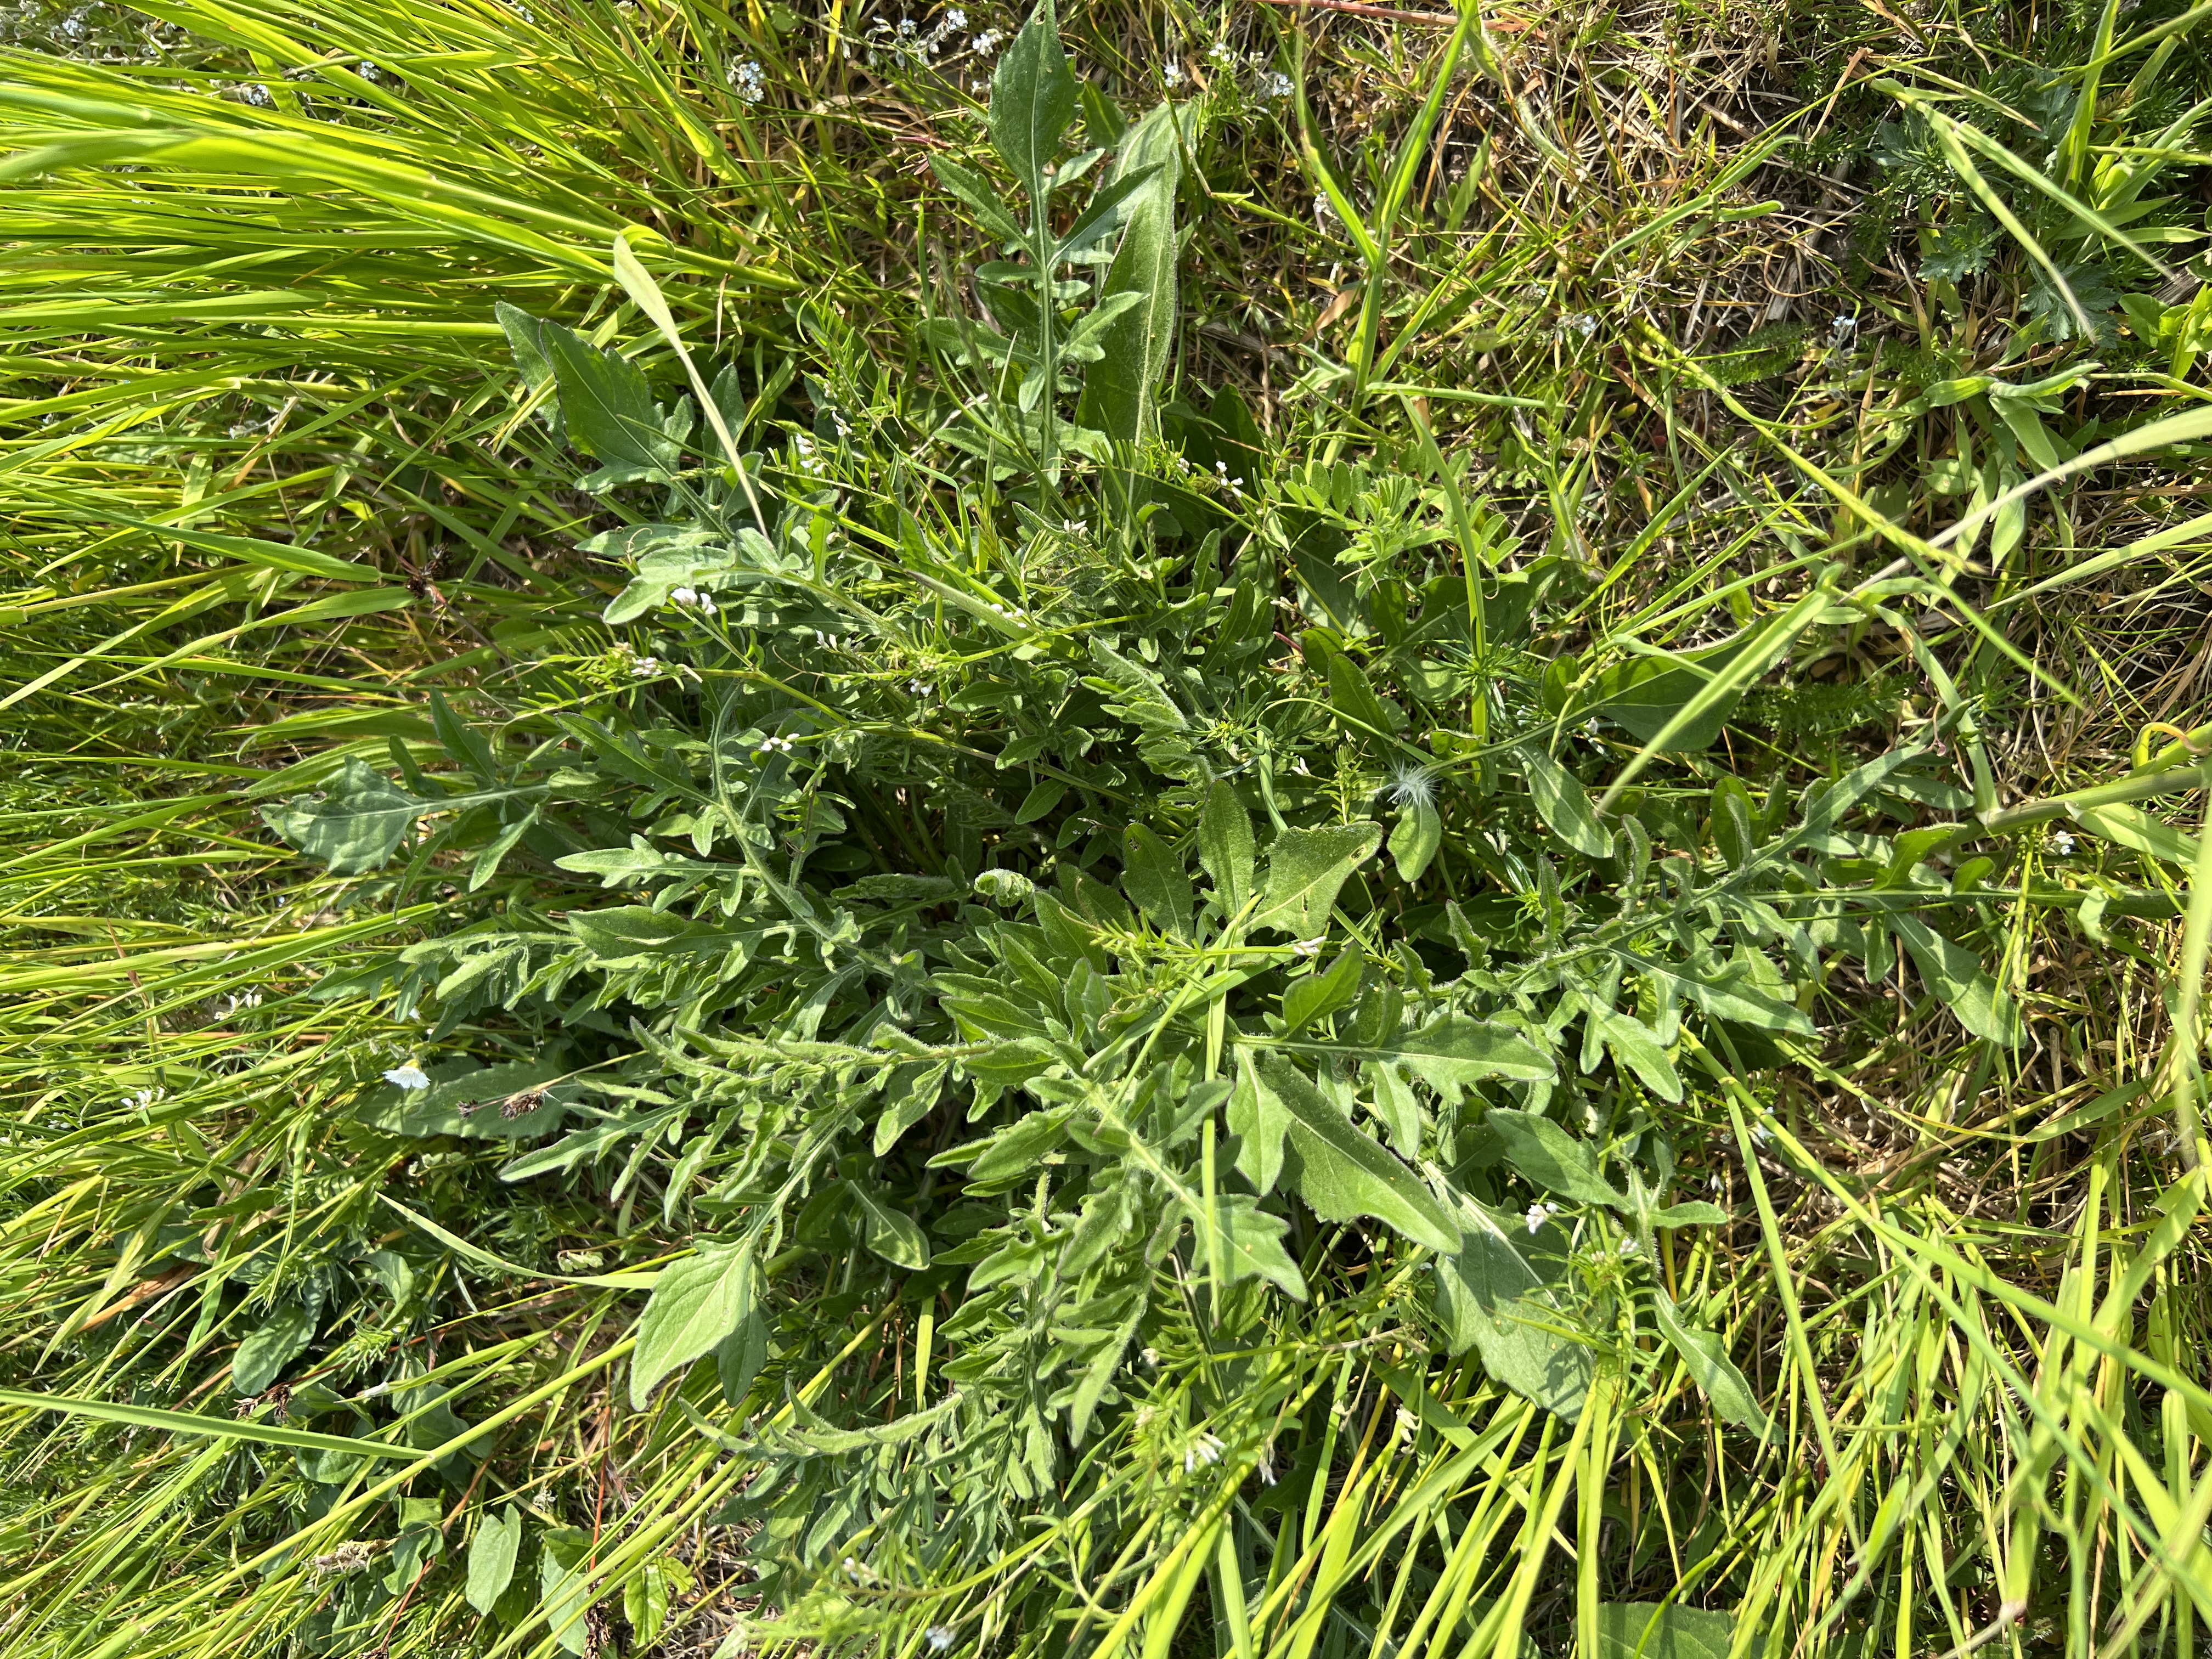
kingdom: Plantae
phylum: Tracheophyta
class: Magnoliopsida
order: Asterales
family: Asteraceae
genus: Centaurea
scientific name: Centaurea scabiosa
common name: Stor knopurt
